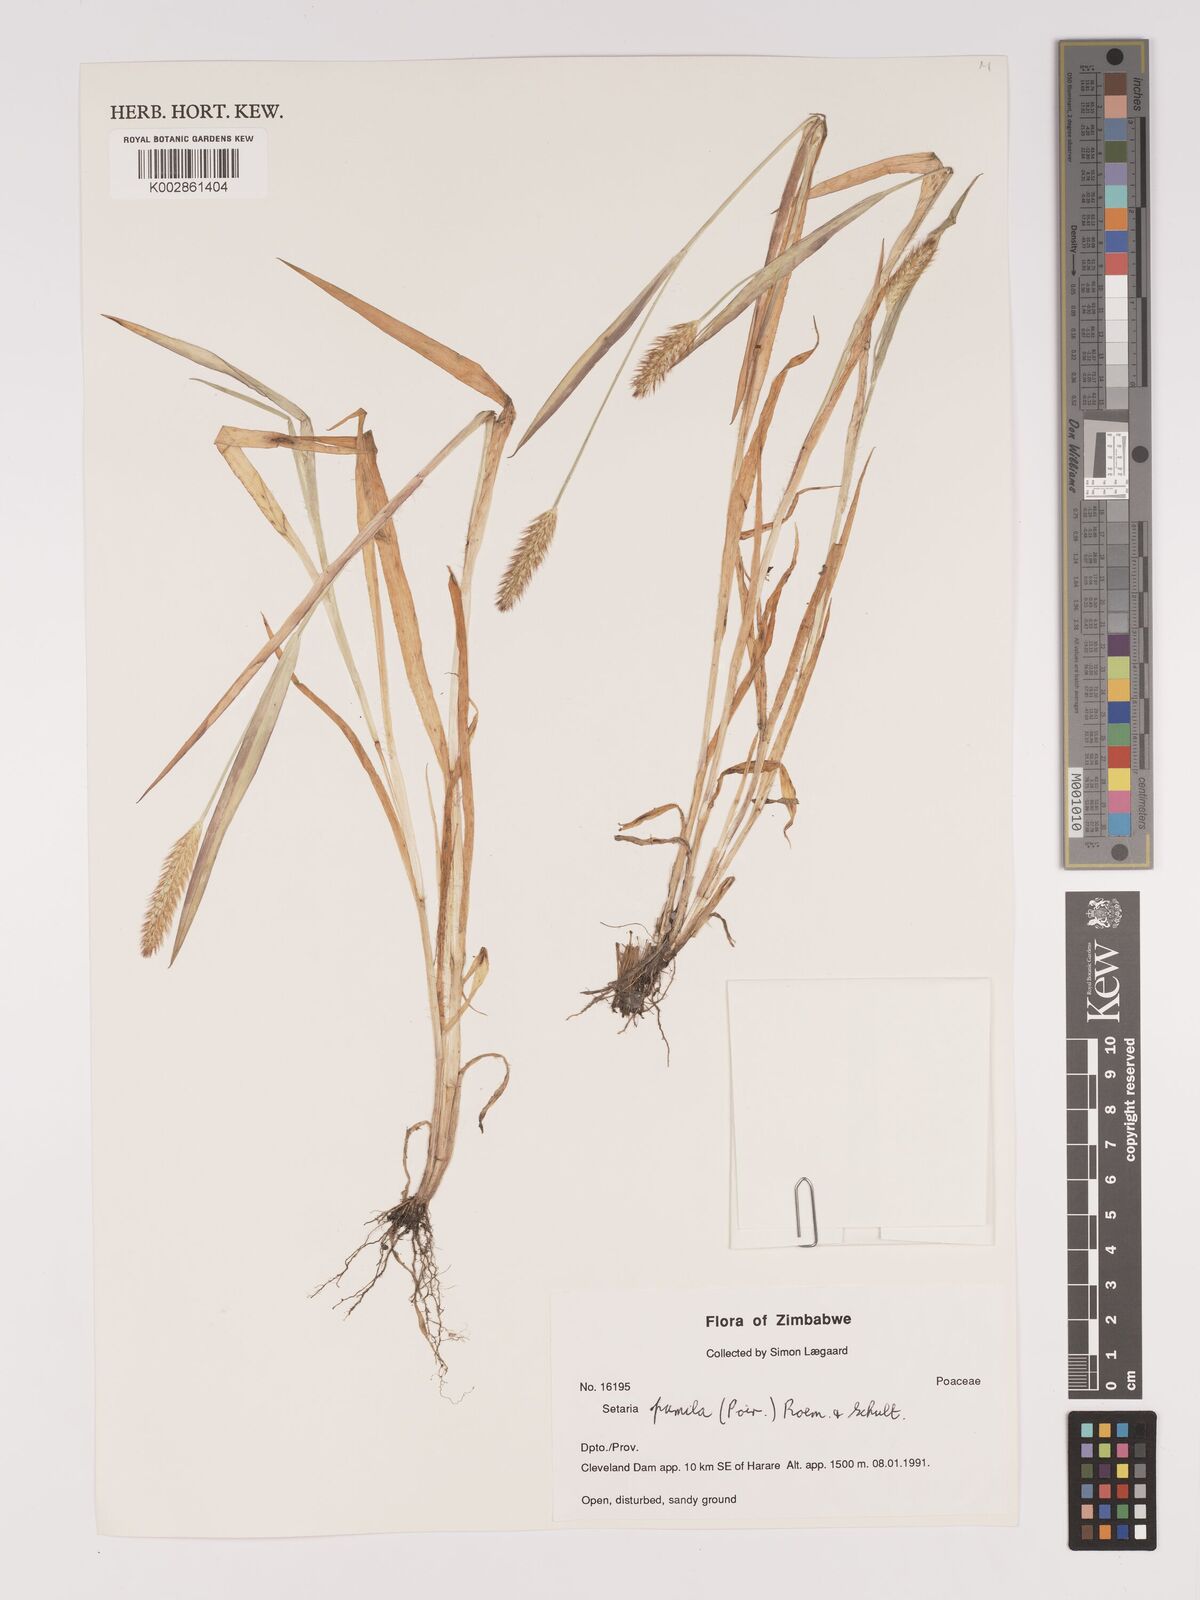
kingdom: Plantae
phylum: Tracheophyta
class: Liliopsida
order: Poales
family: Poaceae
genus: Setaria
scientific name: Setaria pumila
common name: Yellow bristle-grass
